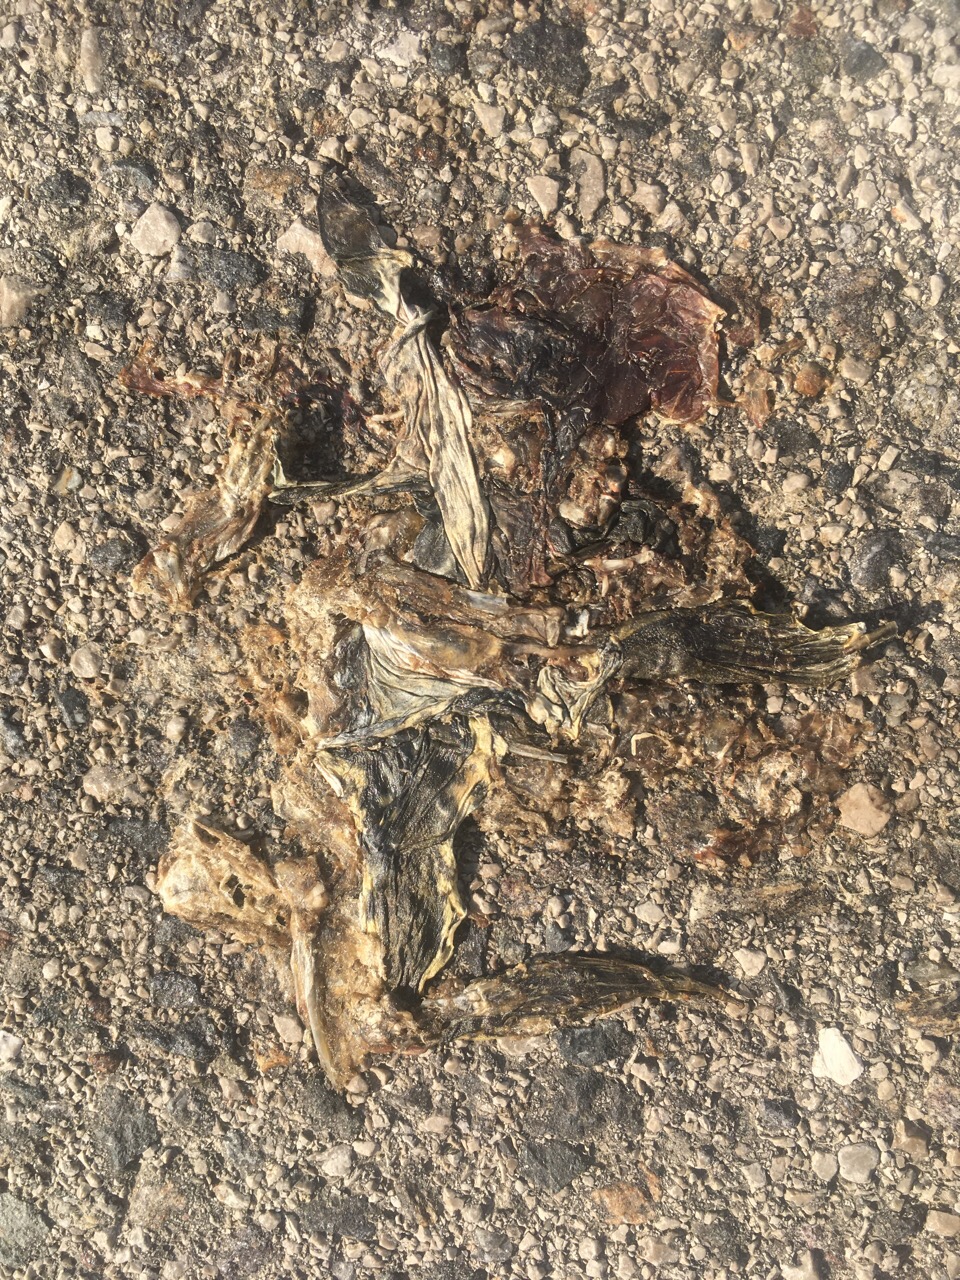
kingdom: Animalia
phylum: Chordata
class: Amphibia
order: Anura
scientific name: Anura
